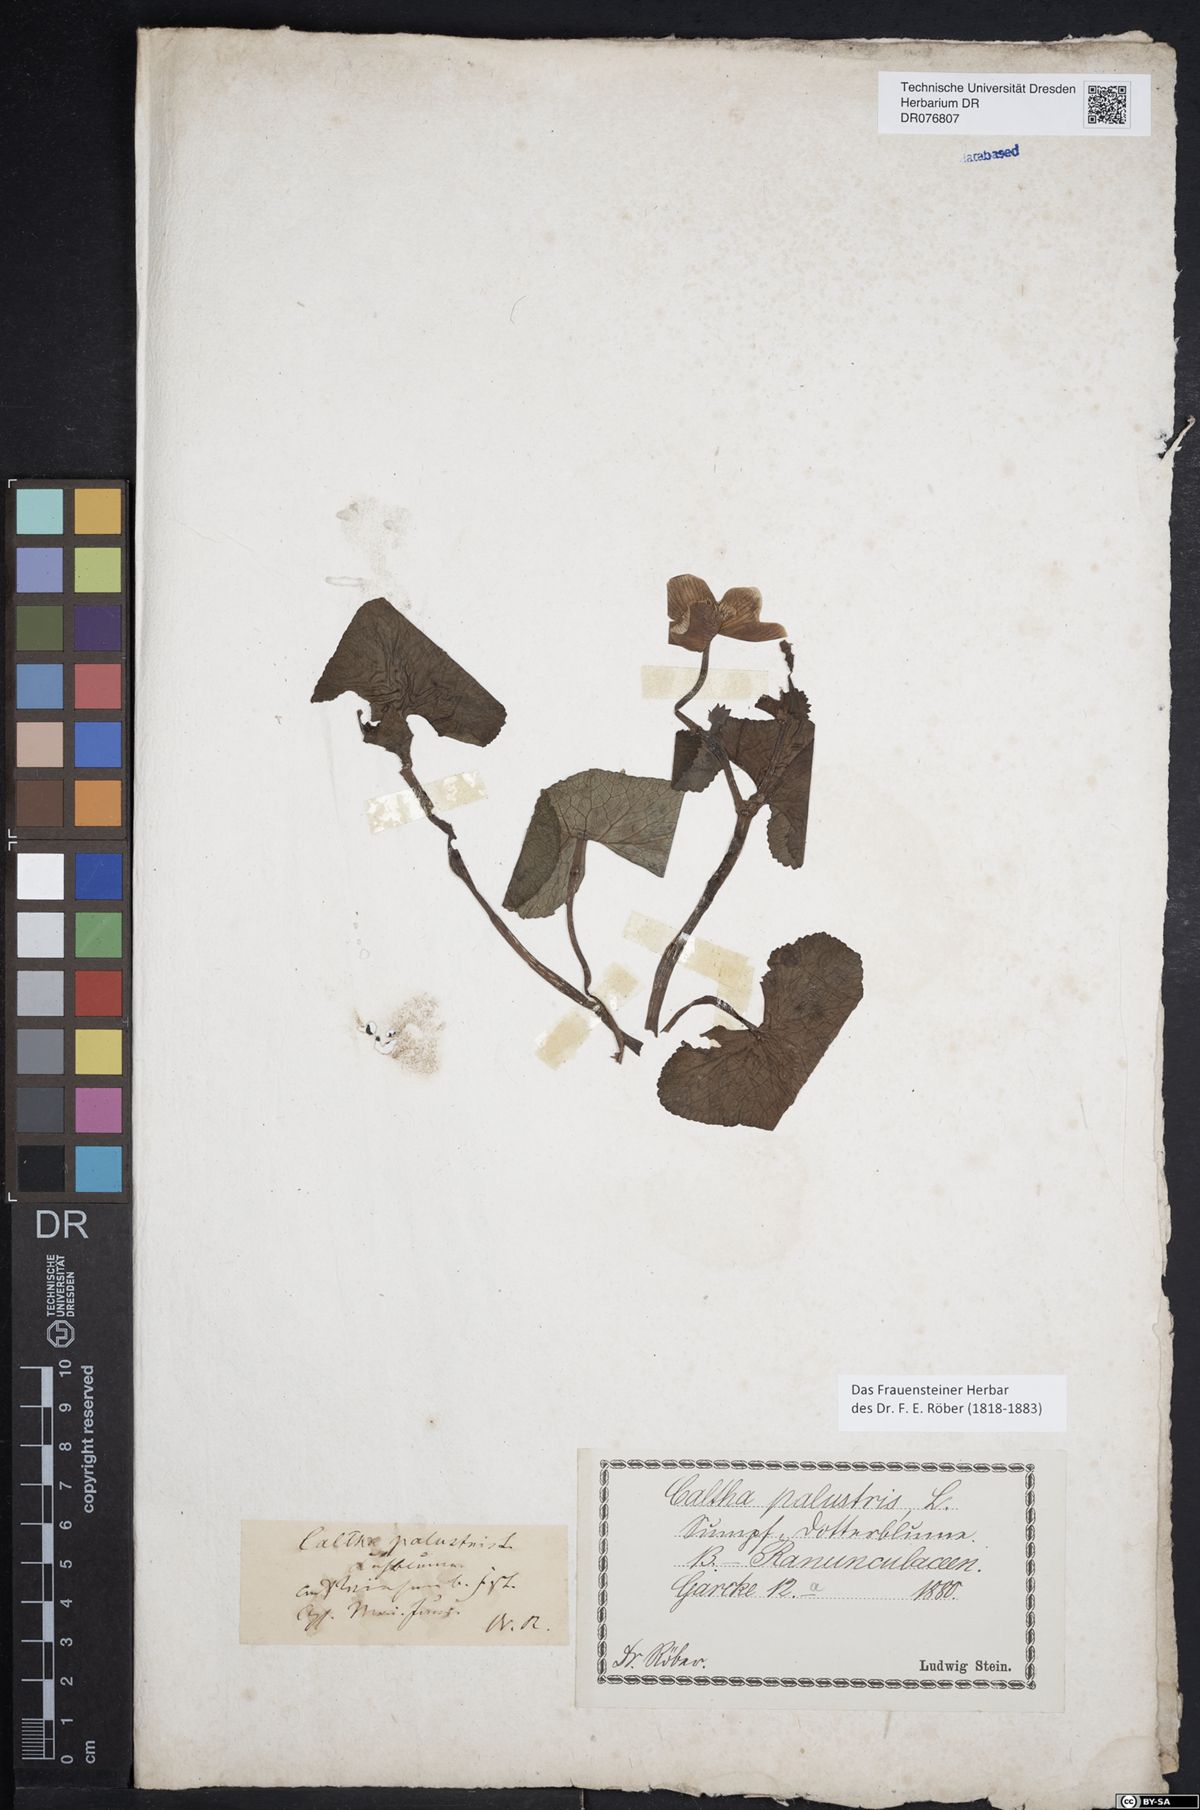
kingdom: Plantae
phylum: Tracheophyta
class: Magnoliopsida
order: Ranunculales
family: Ranunculaceae
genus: Caltha
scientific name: Caltha palustris
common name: Marsh marigold
